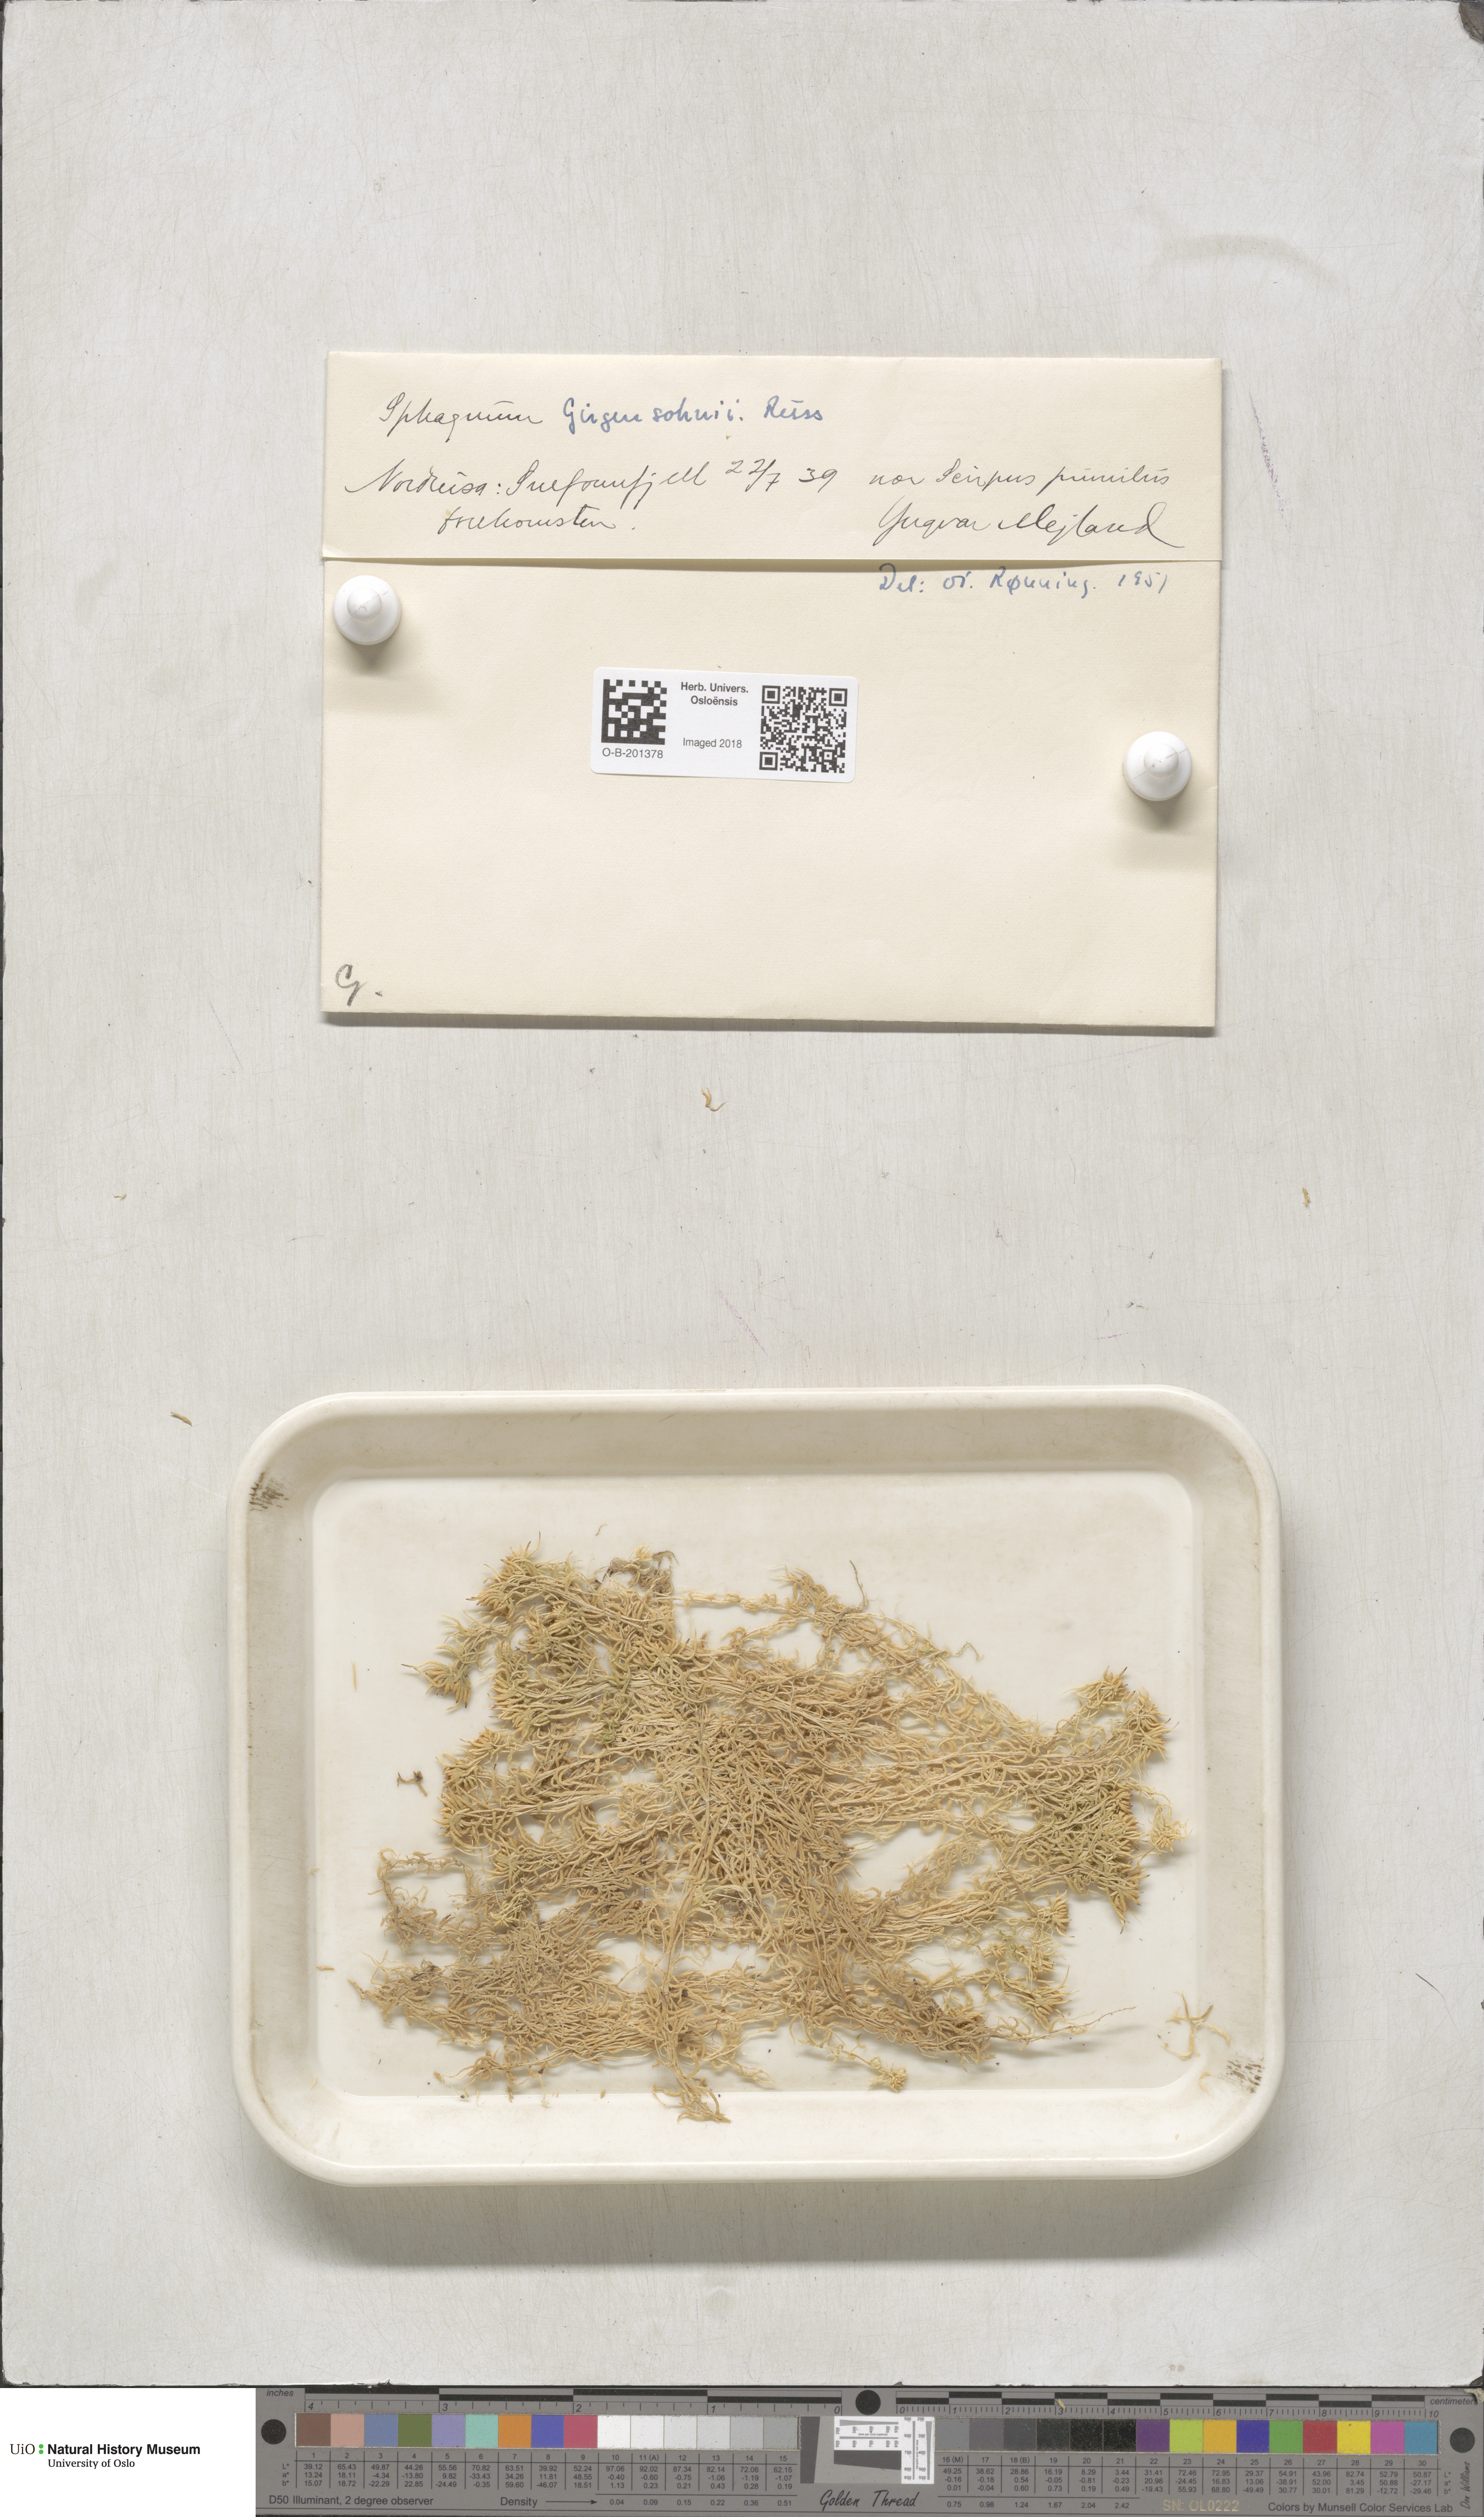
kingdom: Plantae
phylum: Bryophyta
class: Sphagnopsida
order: Sphagnales
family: Sphagnaceae
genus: Sphagnum
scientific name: Sphagnum girgensohnii
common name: Girgensohn's peat moss
